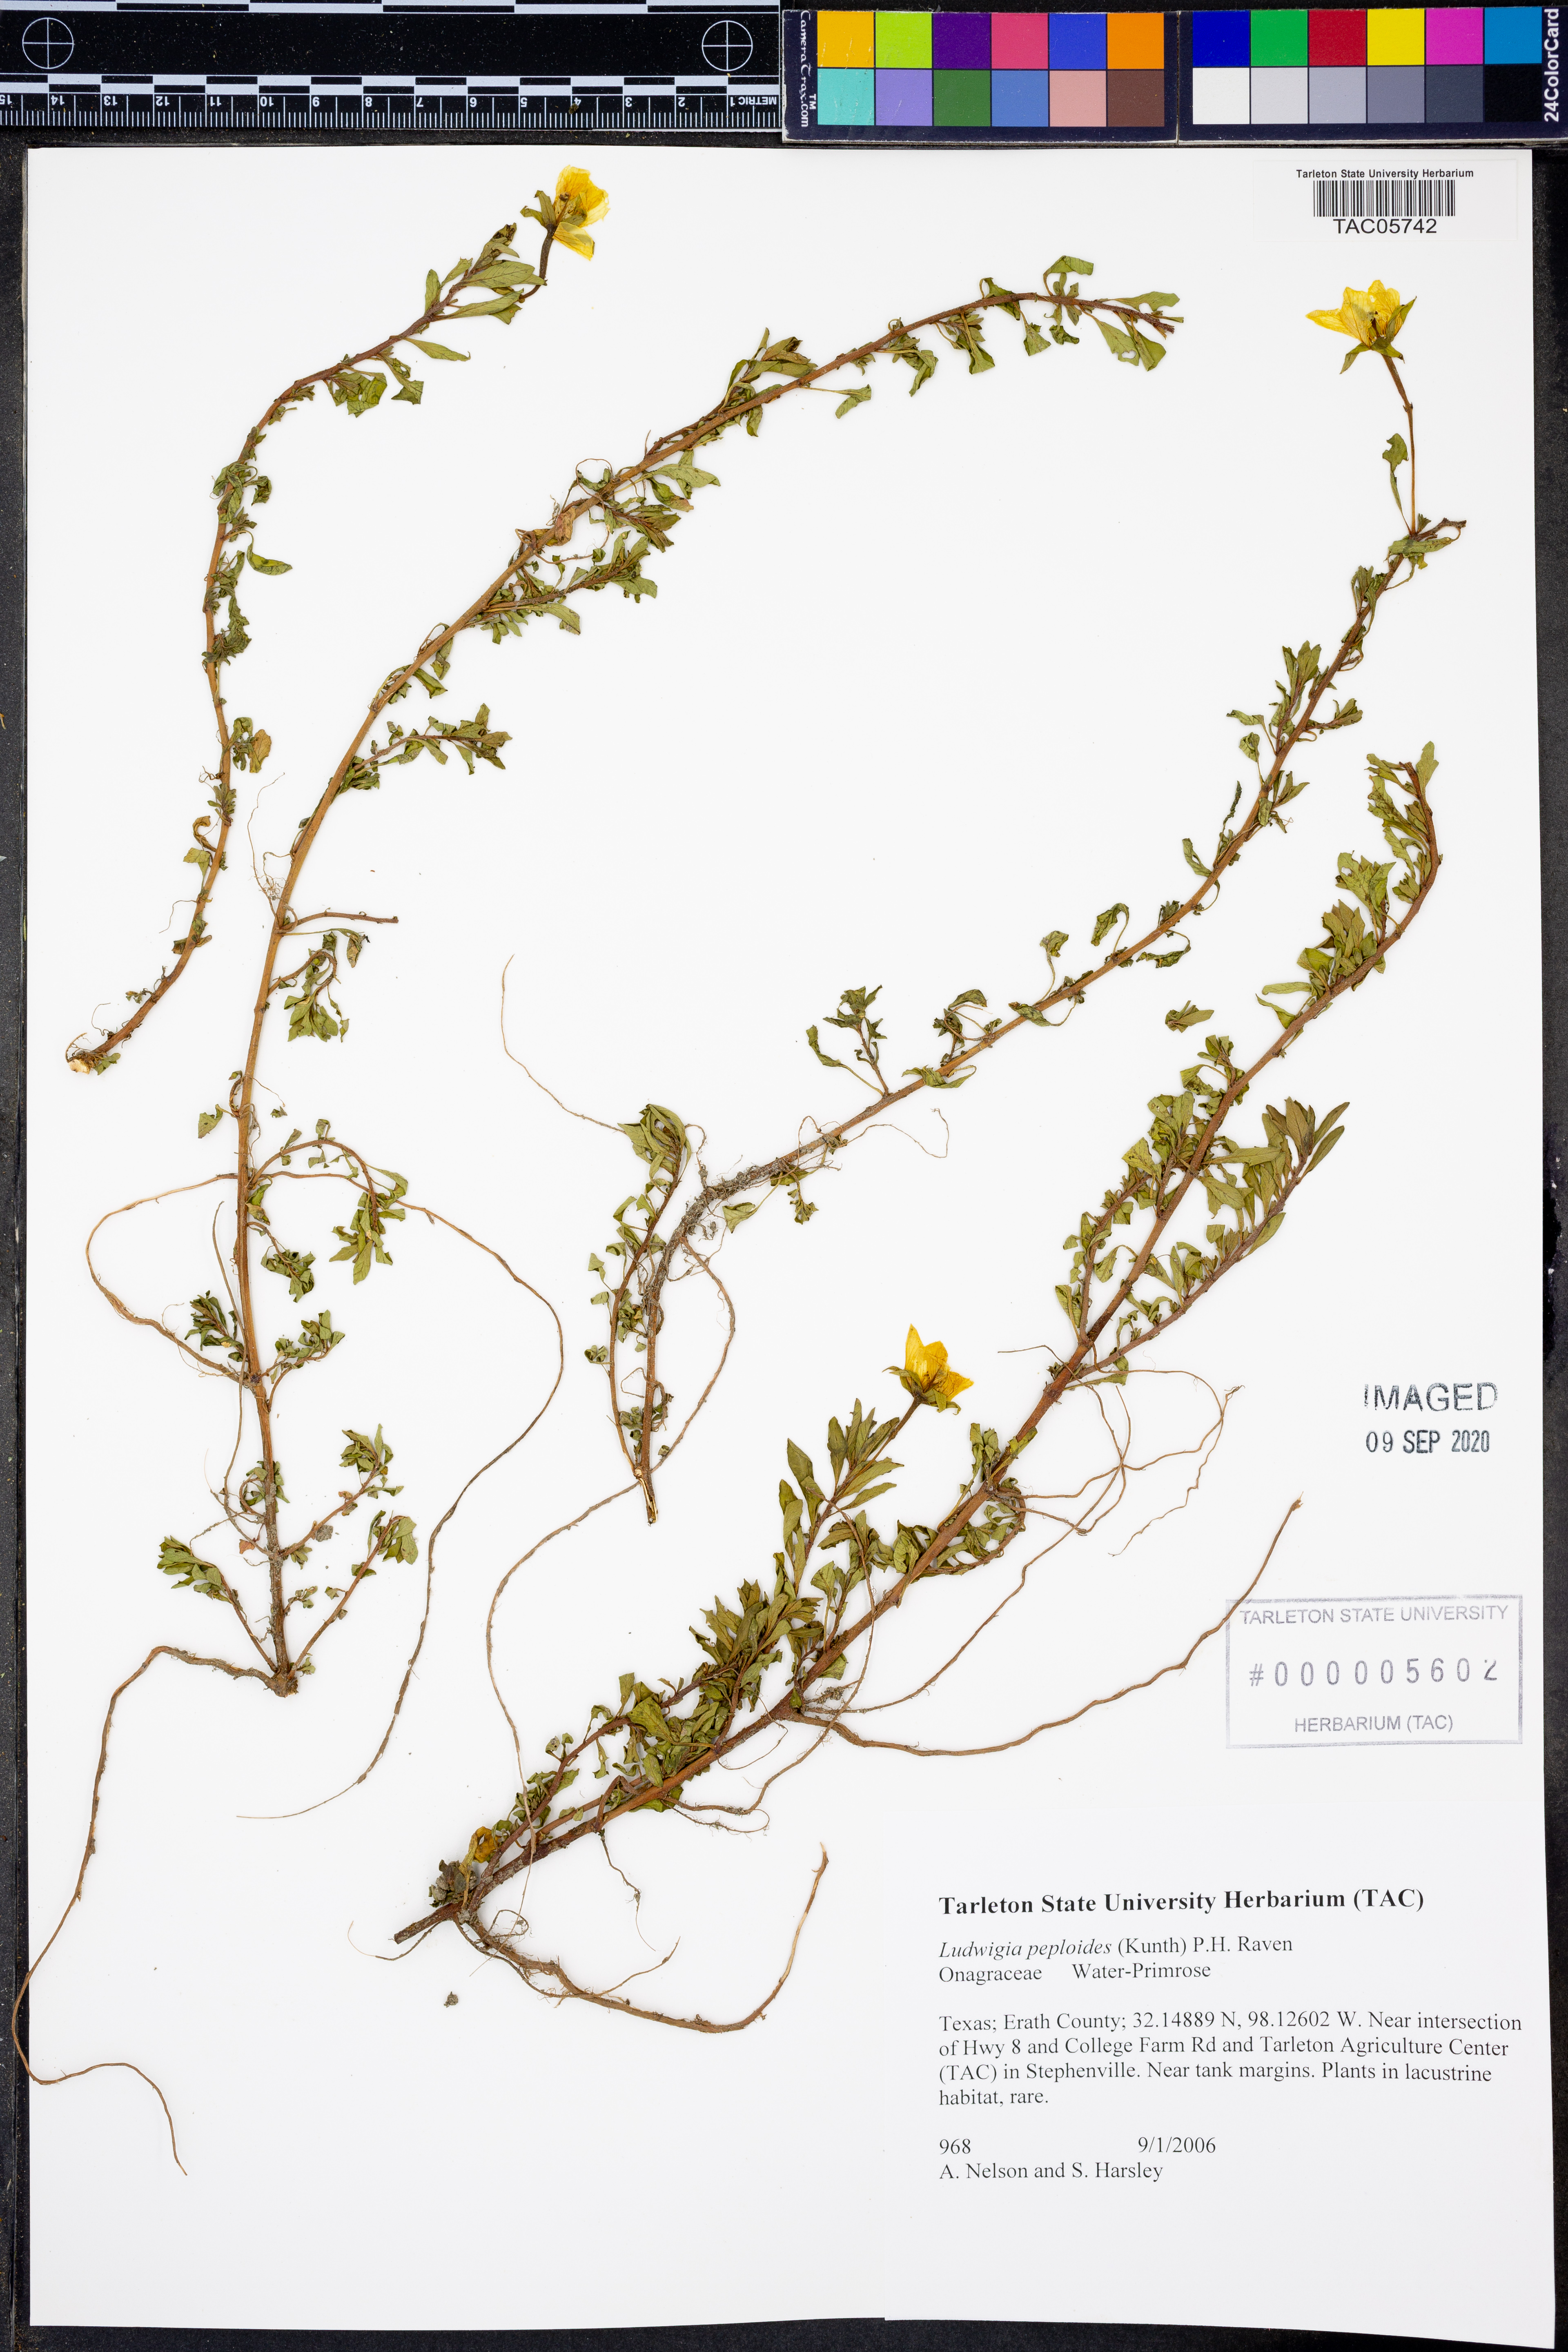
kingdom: Plantae
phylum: Tracheophyta
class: Magnoliopsida
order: Myrtales
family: Onagraceae
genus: Ludwigia
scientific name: Ludwigia peploides
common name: Floating primrose-willow
